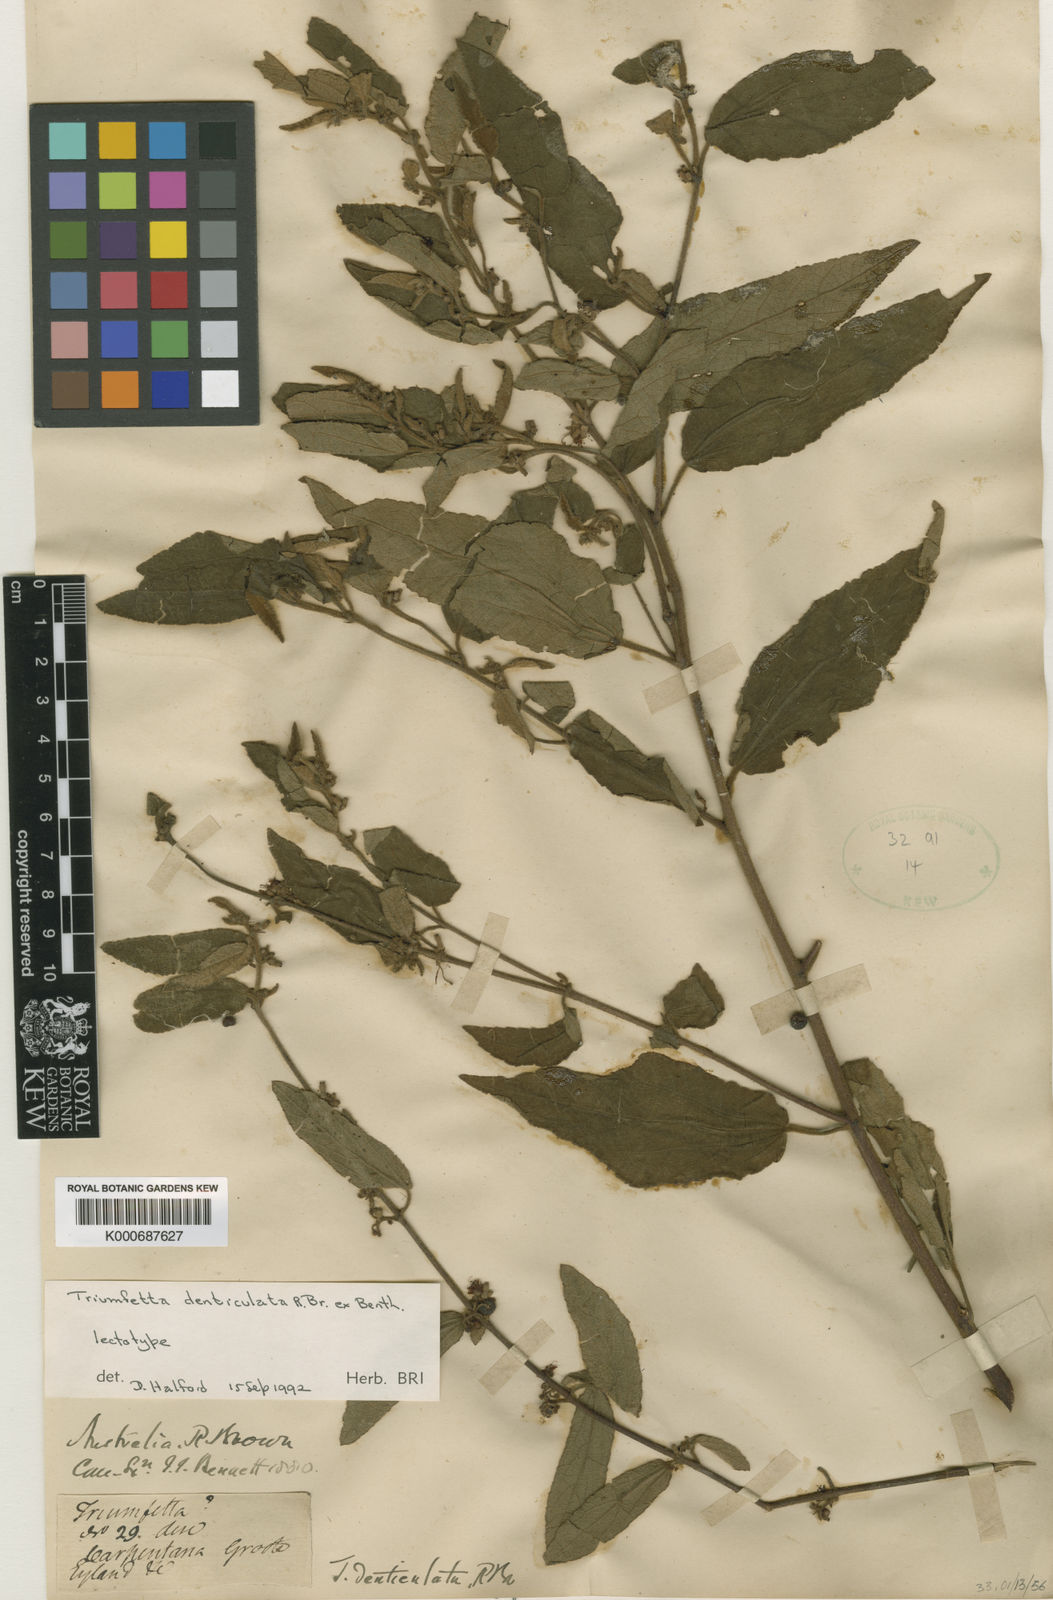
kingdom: Plantae
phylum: Tracheophyta
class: Magnoliopsida
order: Malvales
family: Malvaceae
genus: Triumfetta
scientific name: Triumfetta denticulata
